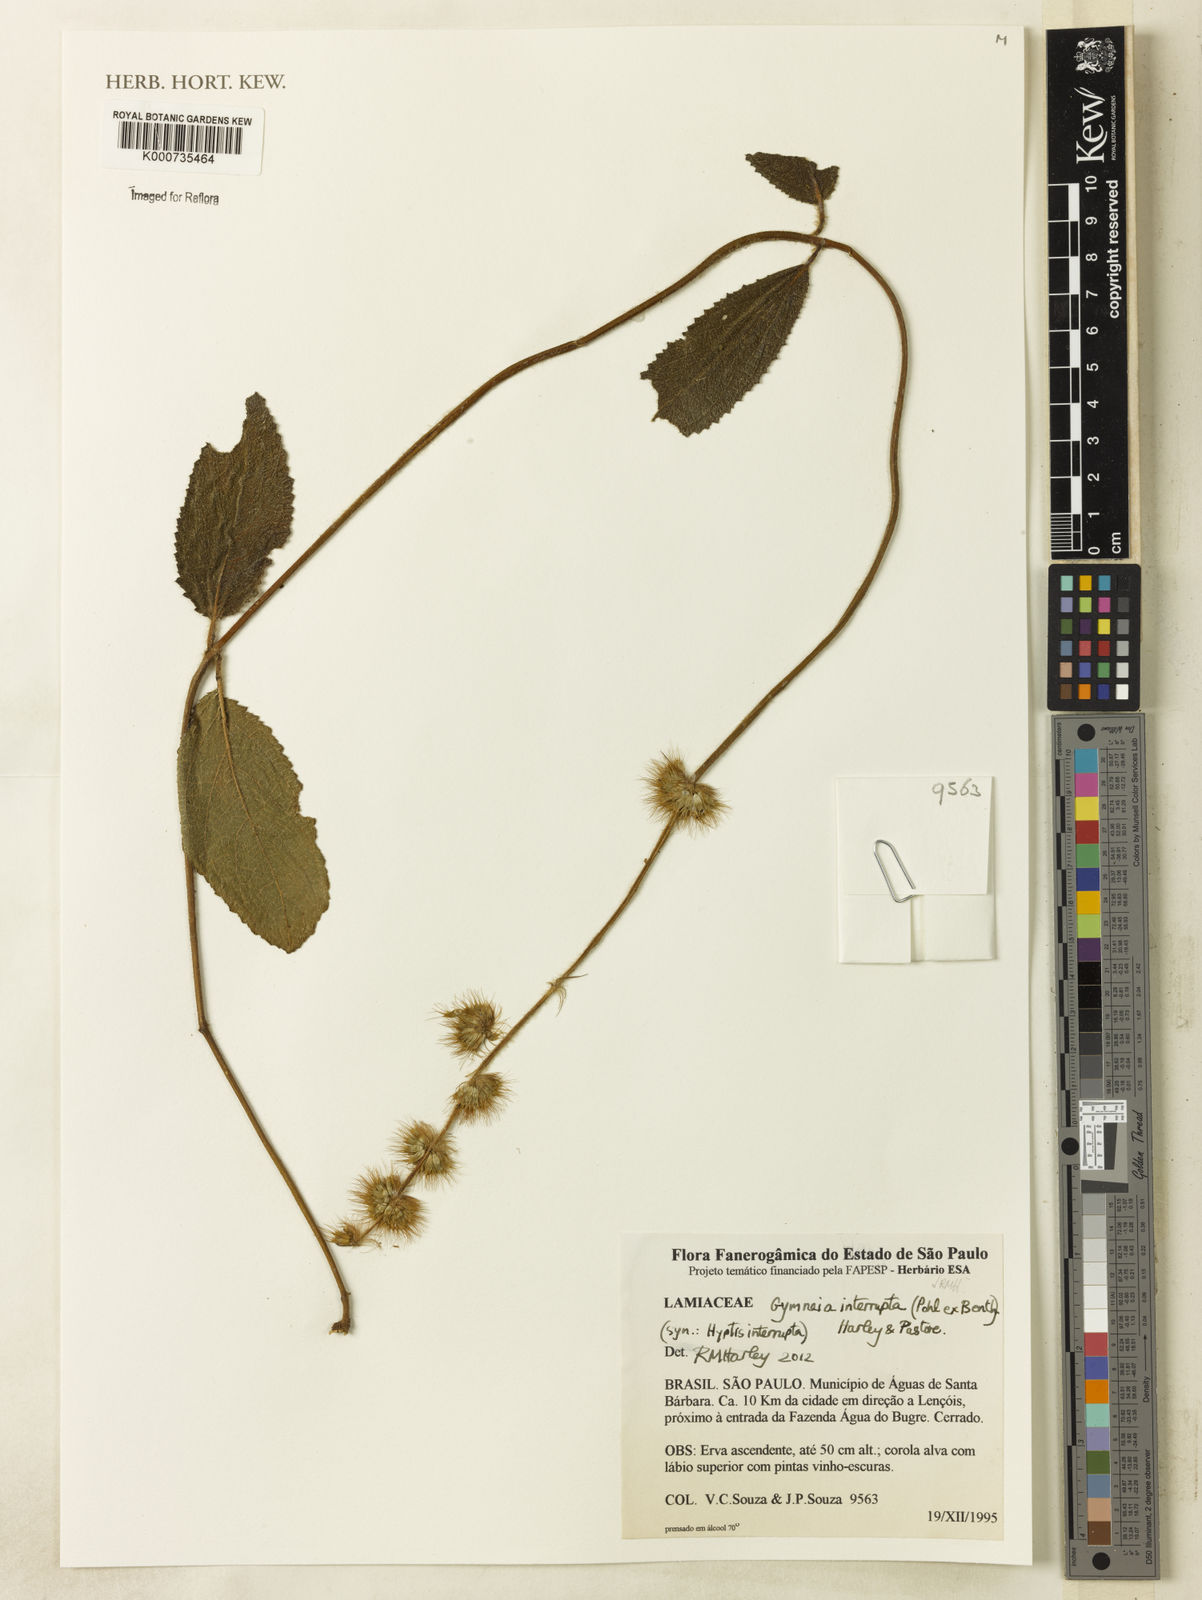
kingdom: Plantae
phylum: Tracheophyta
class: Magnoliopsida
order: Lamiales
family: Lamiaceae
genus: Gymneia
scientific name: Gymneia interrupta
